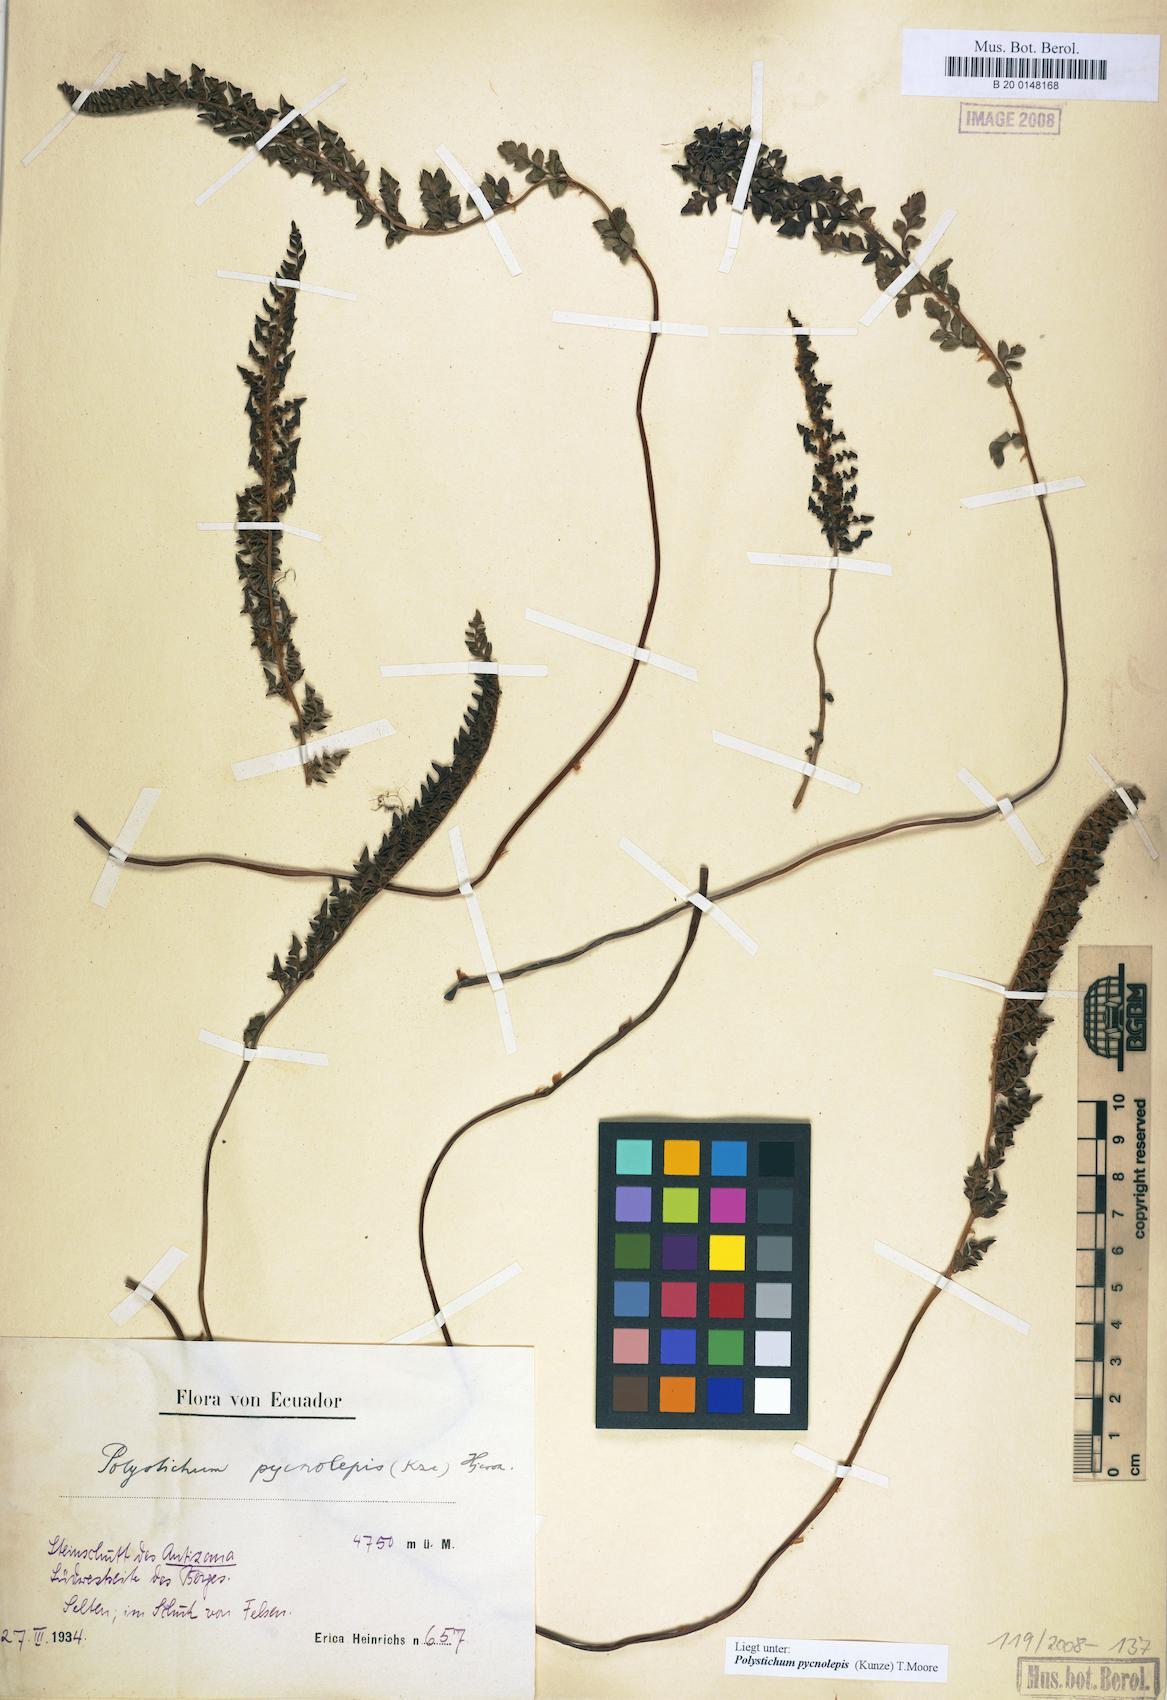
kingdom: Plantae
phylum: Tracheophyta
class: Polypodiopsida
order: Polypodiales
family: Dryopteridaceae
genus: Polystichum
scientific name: Polystichum pycnolepis
